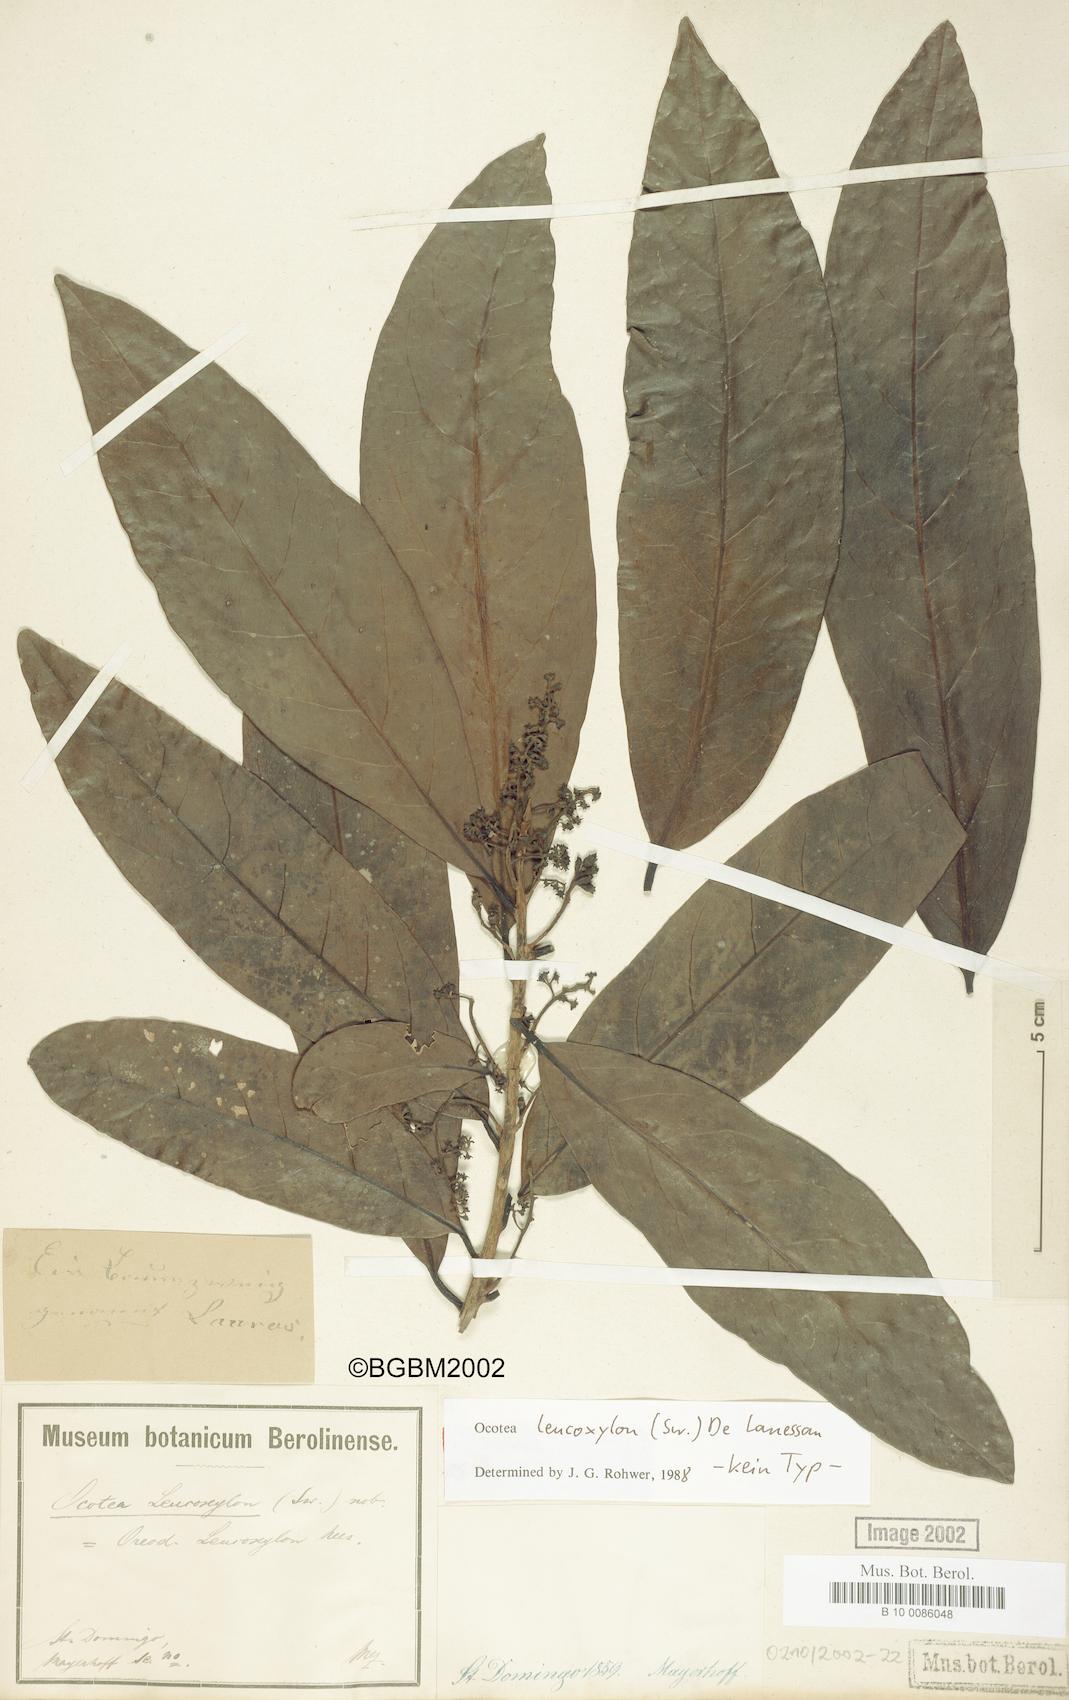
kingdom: Plantae
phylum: Tracheophyta
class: Magnoliopsida
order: Laurales
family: Lauraceae
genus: Ocotea
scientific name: Ocotea leucoxylon
